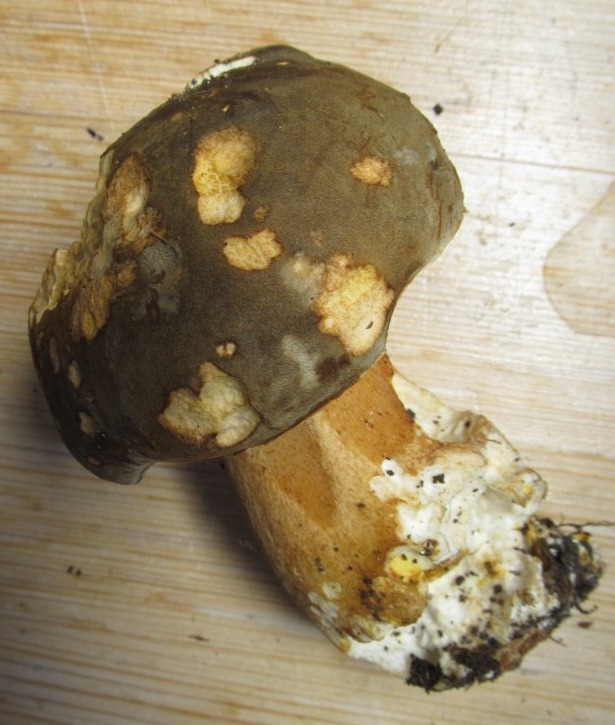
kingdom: Fungi
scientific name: Fungi
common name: bronze-rørhat
